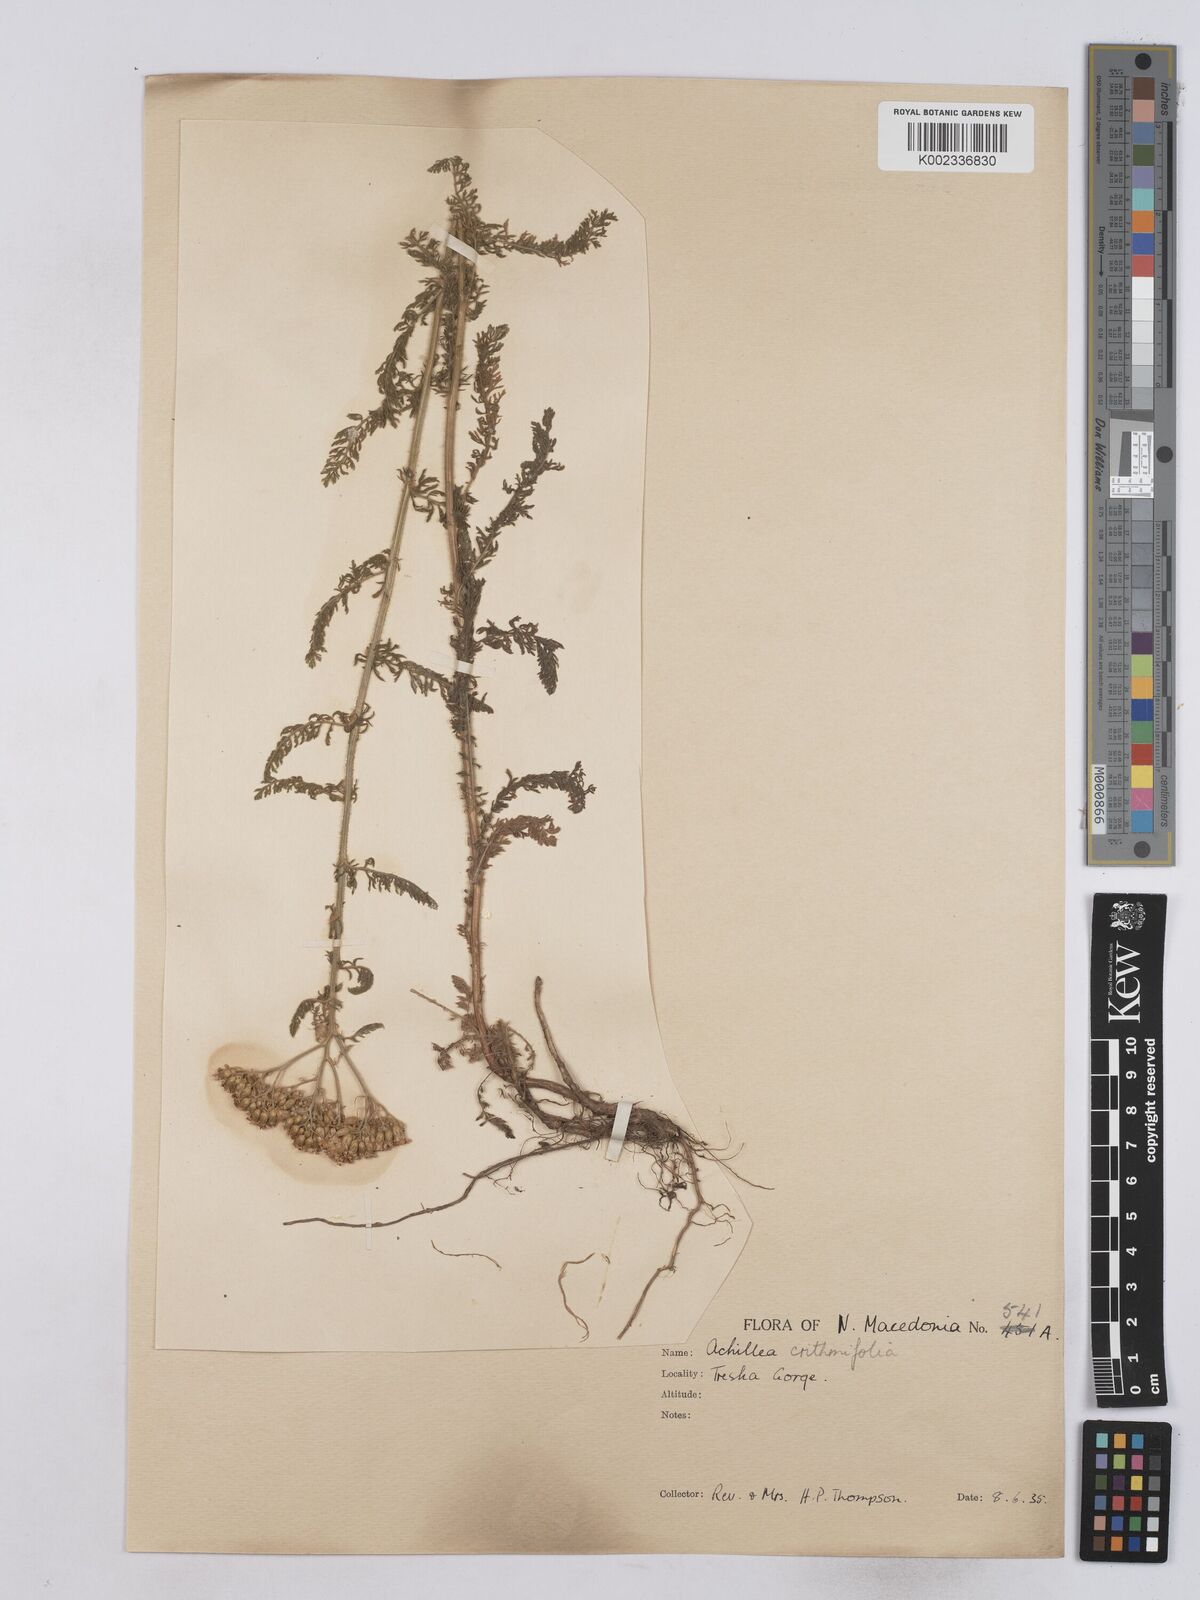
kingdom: Plantae
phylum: Tracheophyta
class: Magnoliopsida
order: Asterales
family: Asteraceae
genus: Achillea
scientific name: Achillea crithmifolia
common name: Yarrow
